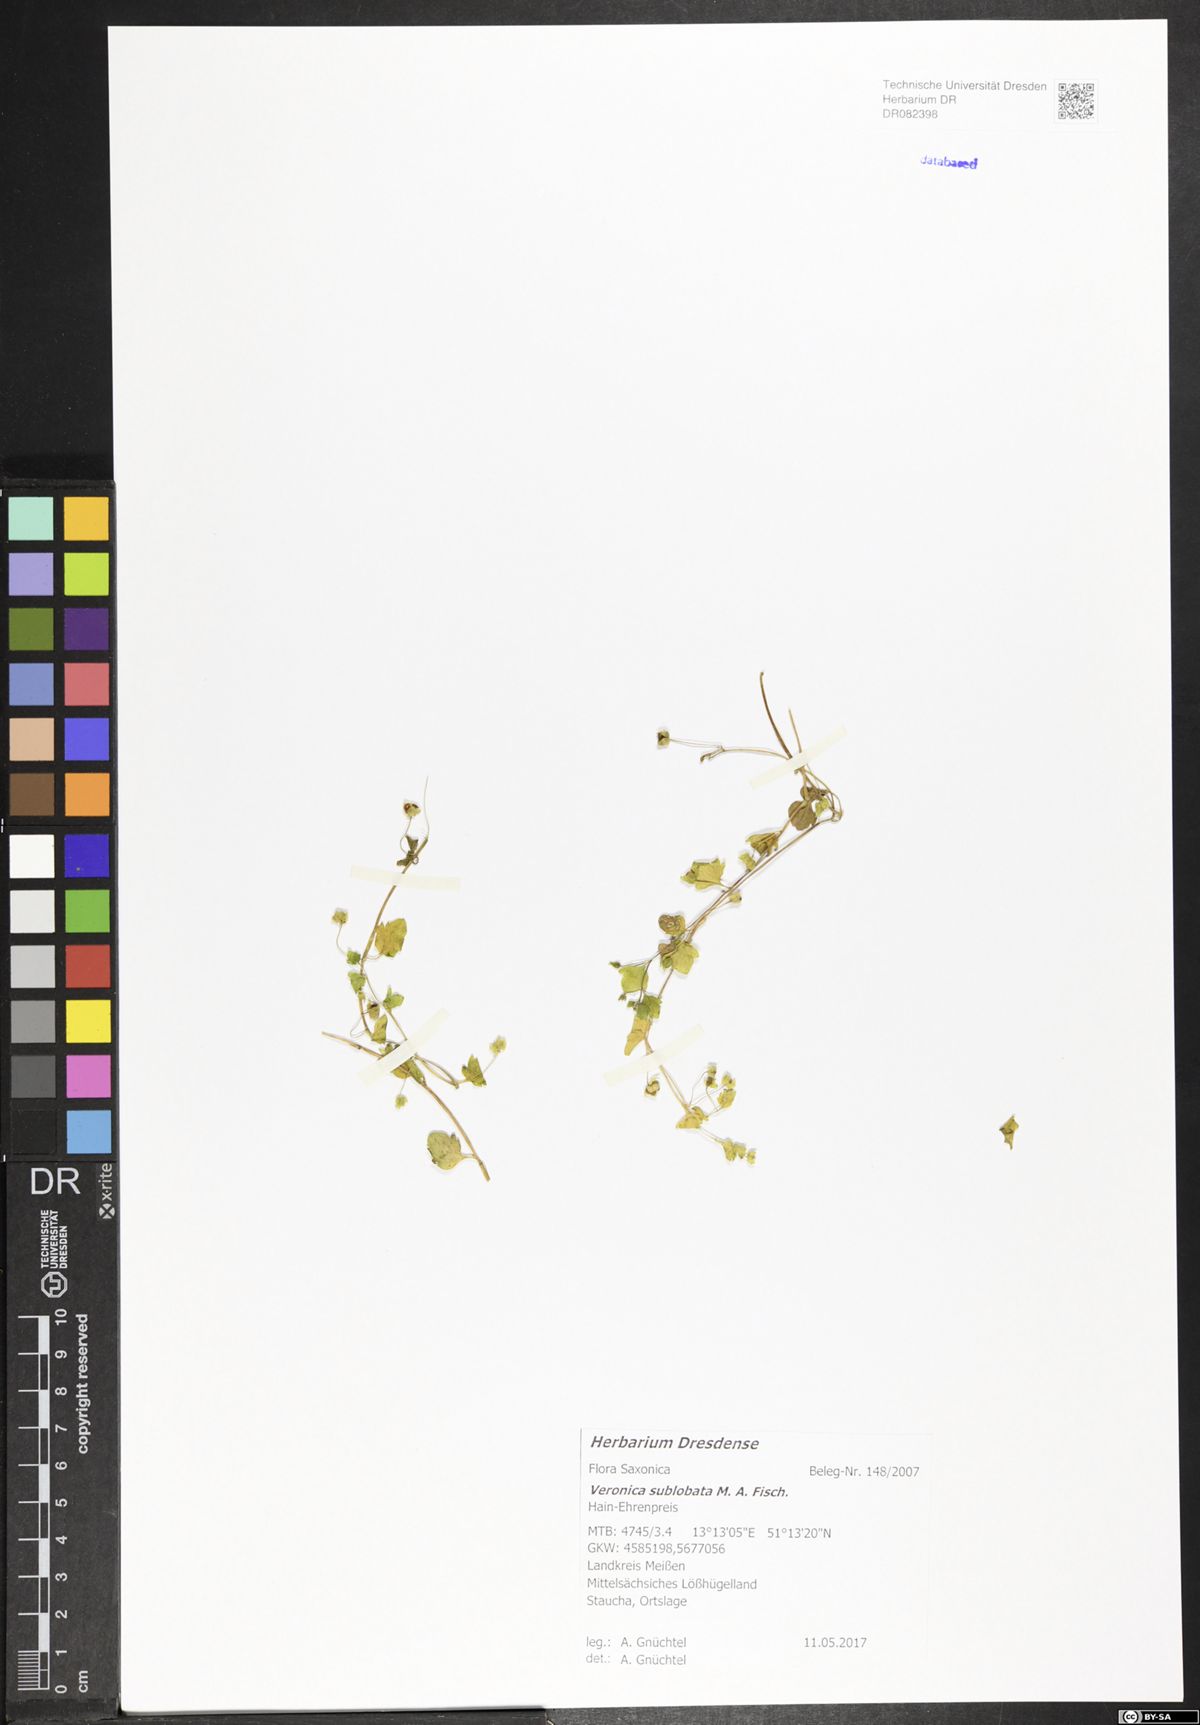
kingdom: Plantae
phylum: Tracheophyta
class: Magnoliopsida
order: Lamiales
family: Plantaginaceae
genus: Veronica
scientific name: Veronica sublobata
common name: False ivy-leaved speedwell
